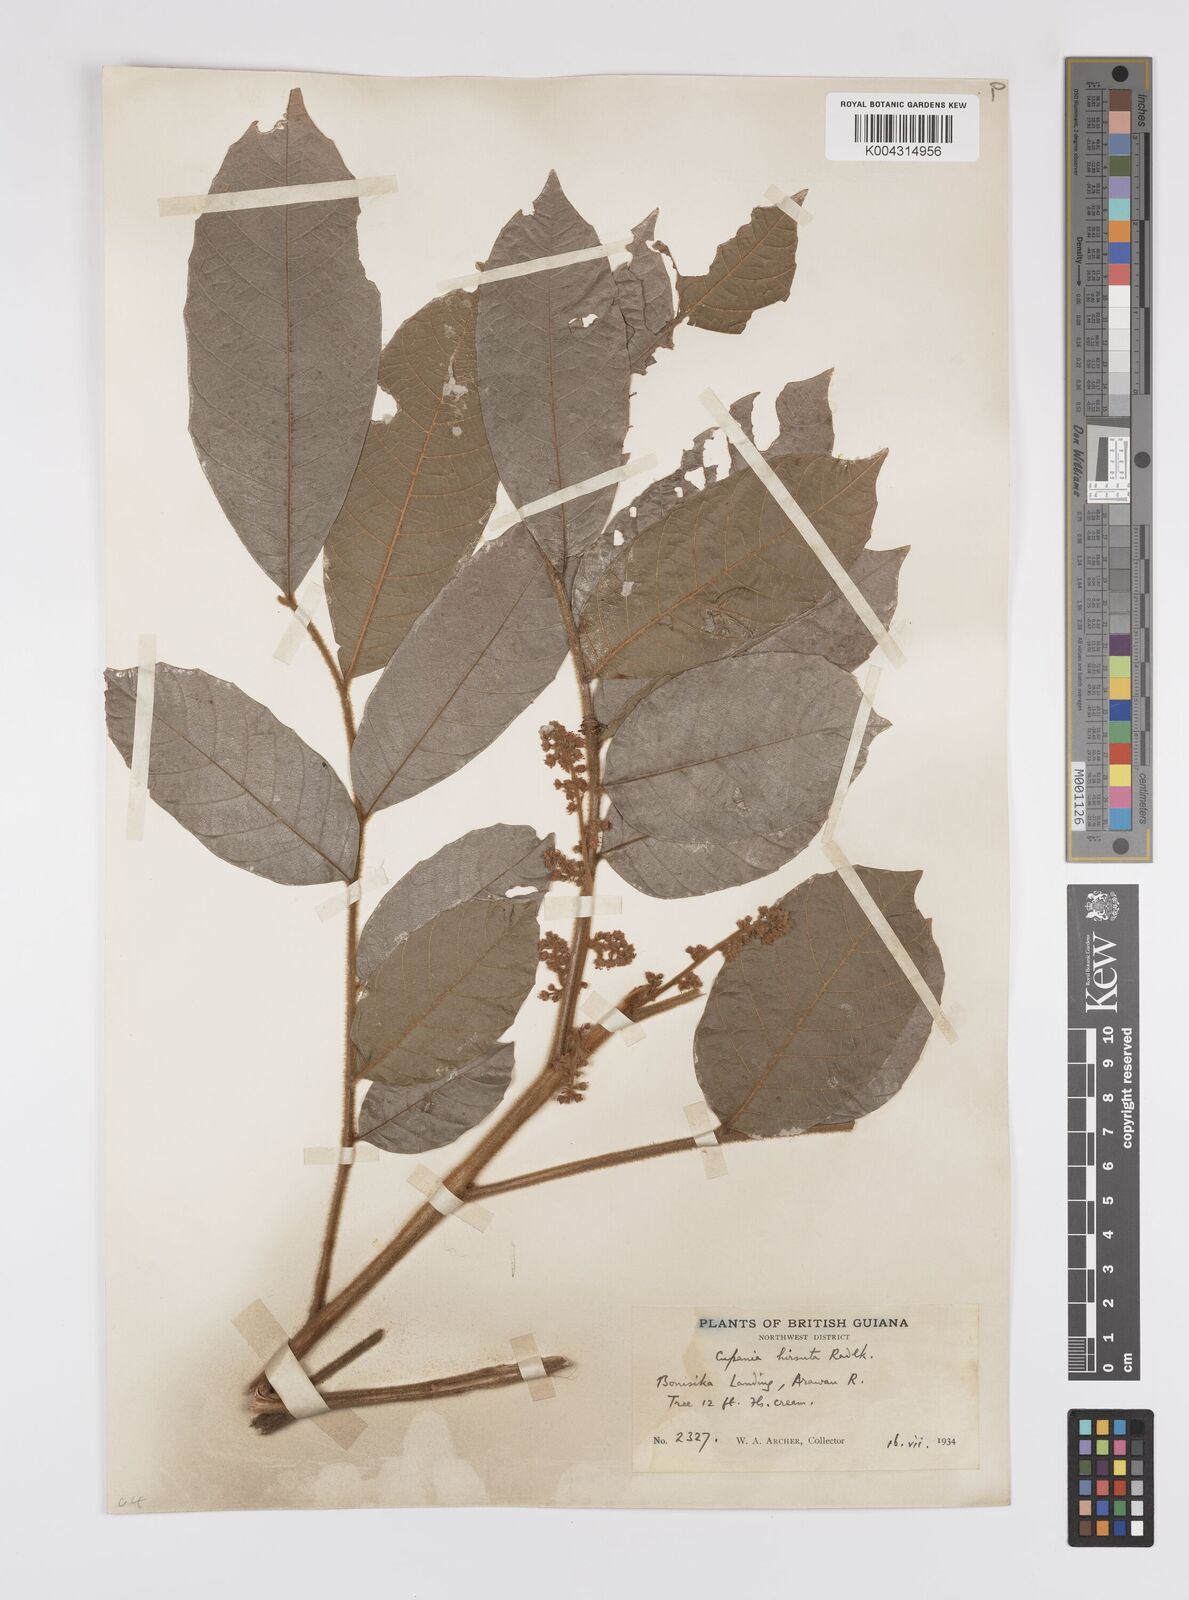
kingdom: Plantae
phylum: Tracheophyta
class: Magnoliopsida
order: Sapindales
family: Sapindaceae
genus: Cupania
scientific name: Cupania hirsuta
